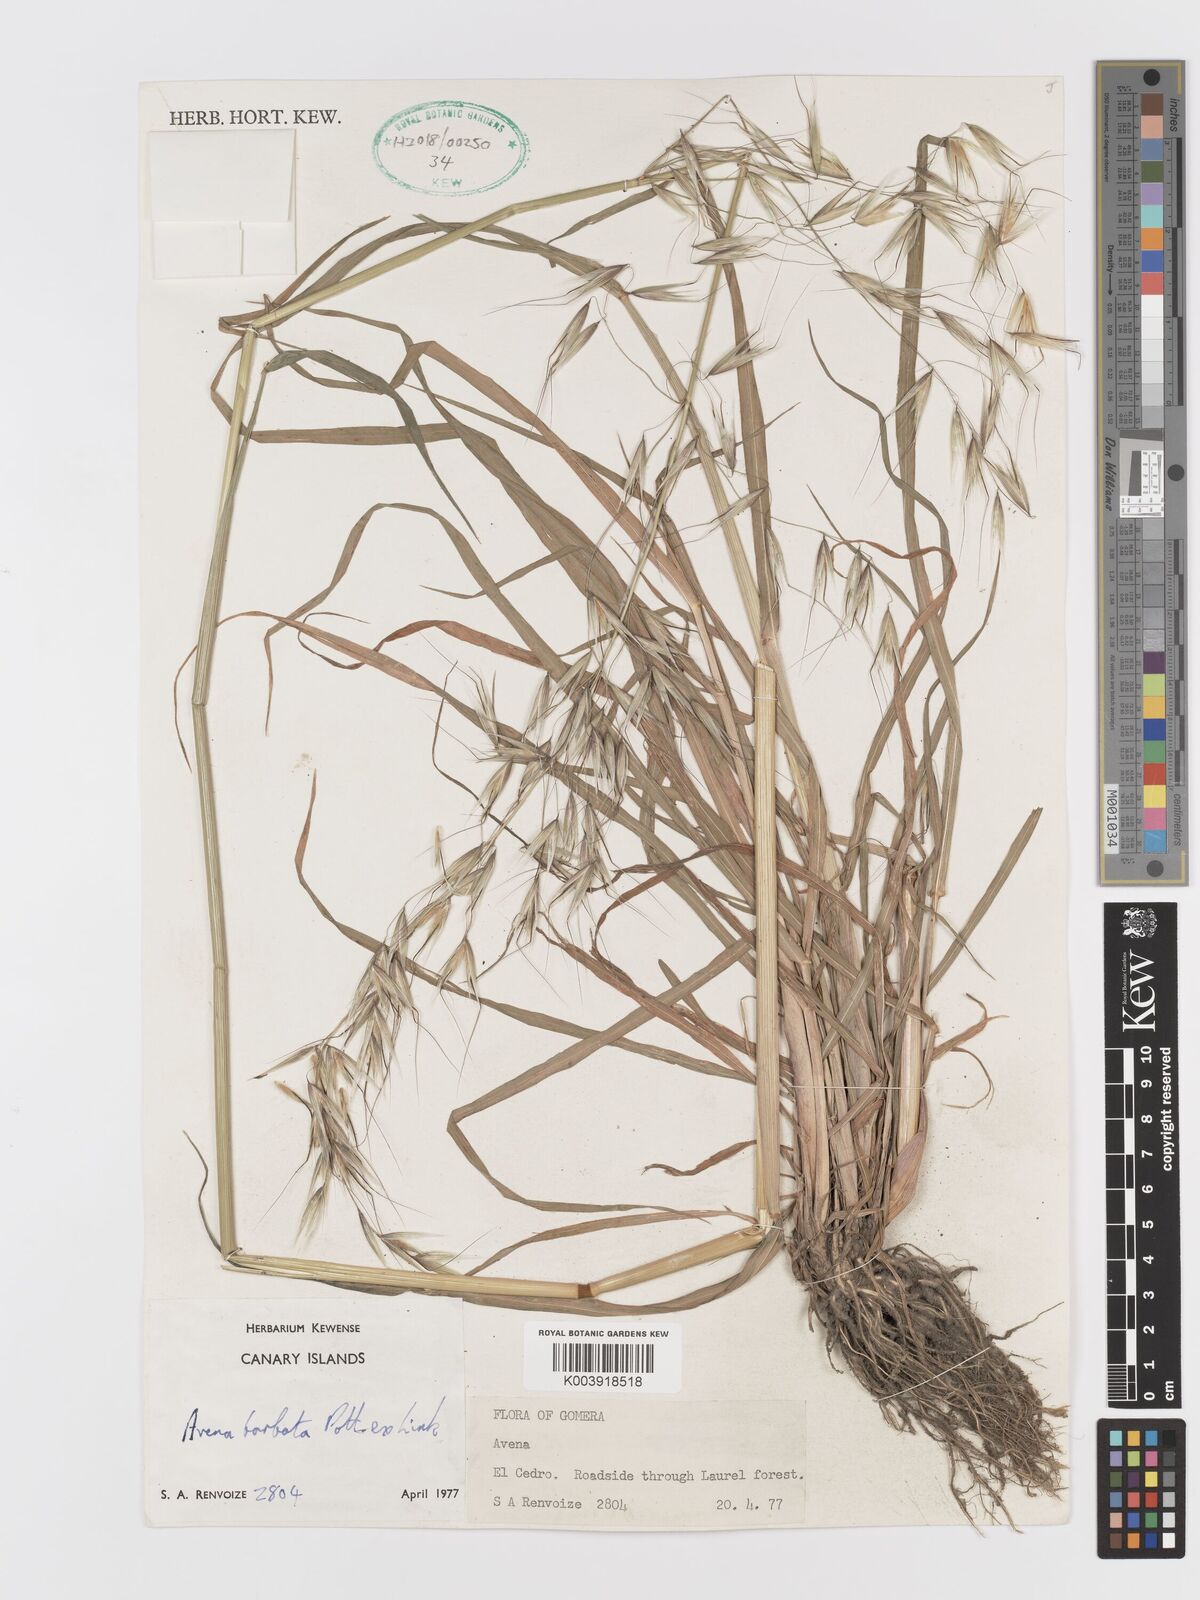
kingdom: Plantae
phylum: Tracheophyta
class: Liliopsida
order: Poales
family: Poaceae
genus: Avena
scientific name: Avena
